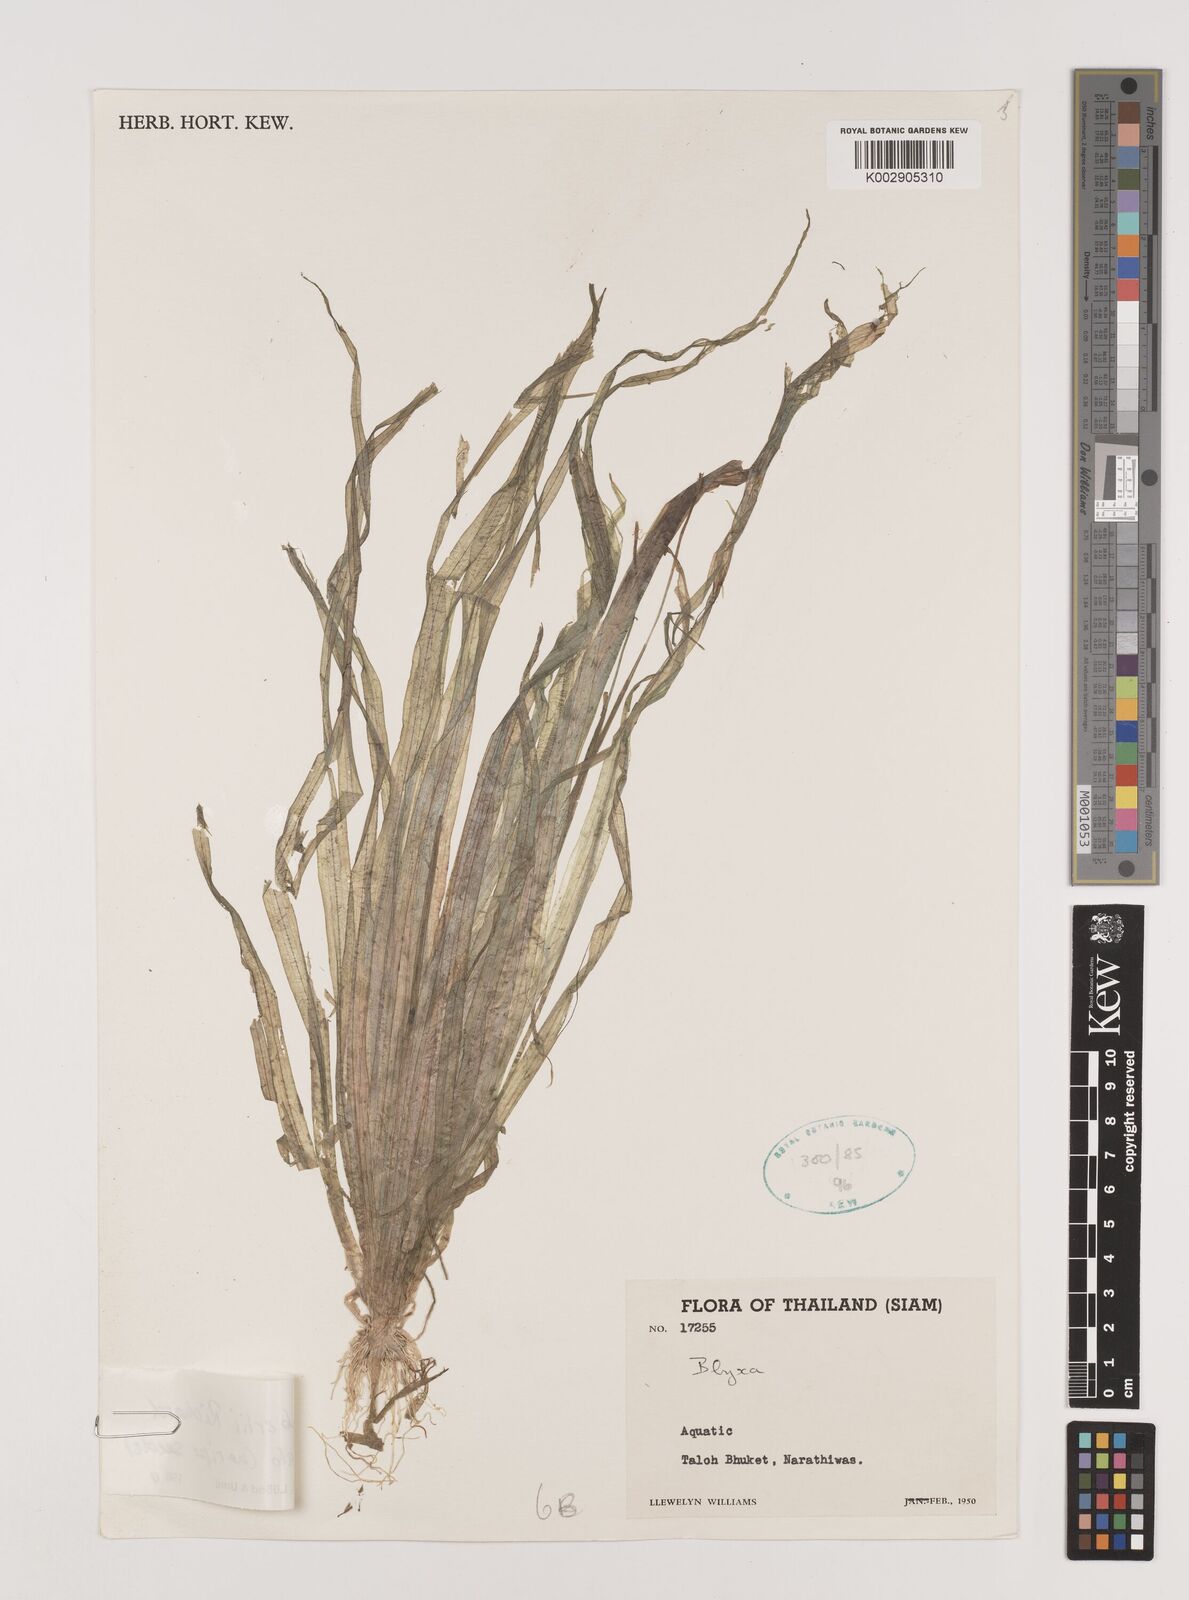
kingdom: Plantae
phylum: Tracheophyta
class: Liliopsida
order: Alismatales
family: Hydrocharitaceae
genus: Blyxa
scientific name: Blyxa aubertii
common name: Roundfruit blyxa
